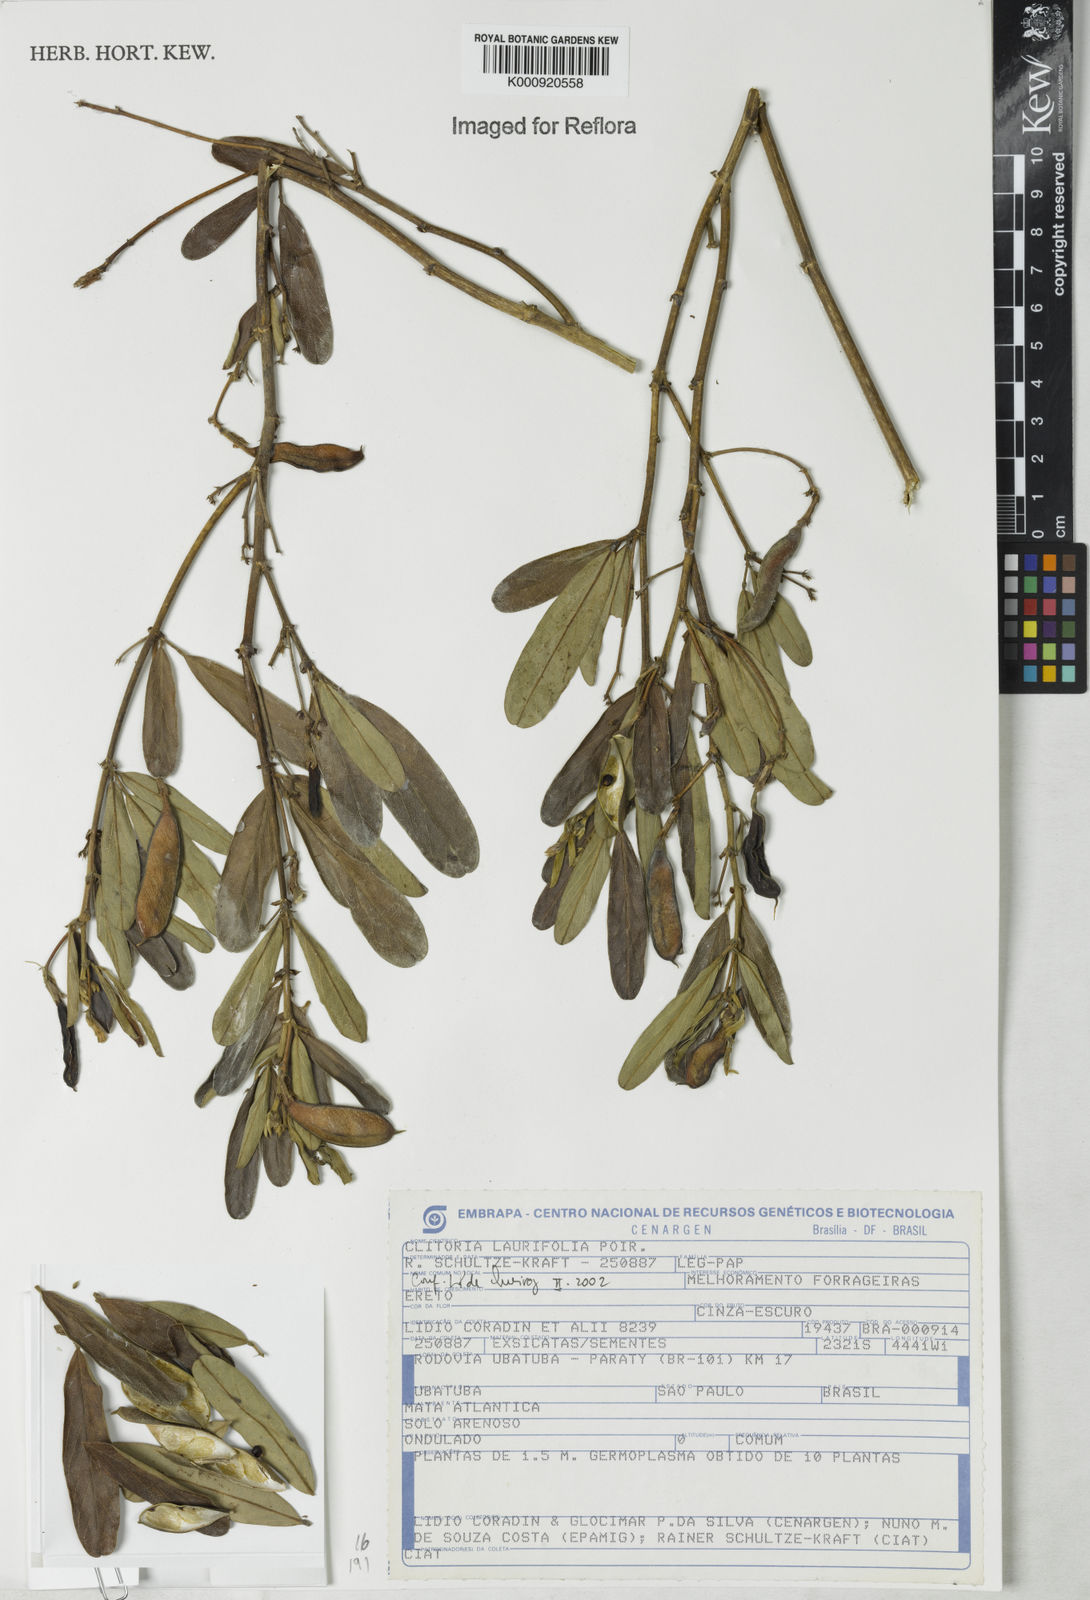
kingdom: Plantae
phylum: Tracheophyta
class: Magnoliopsida
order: Fabales
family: Fabaceae
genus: Clitoria
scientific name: Clitoria laurifolia
